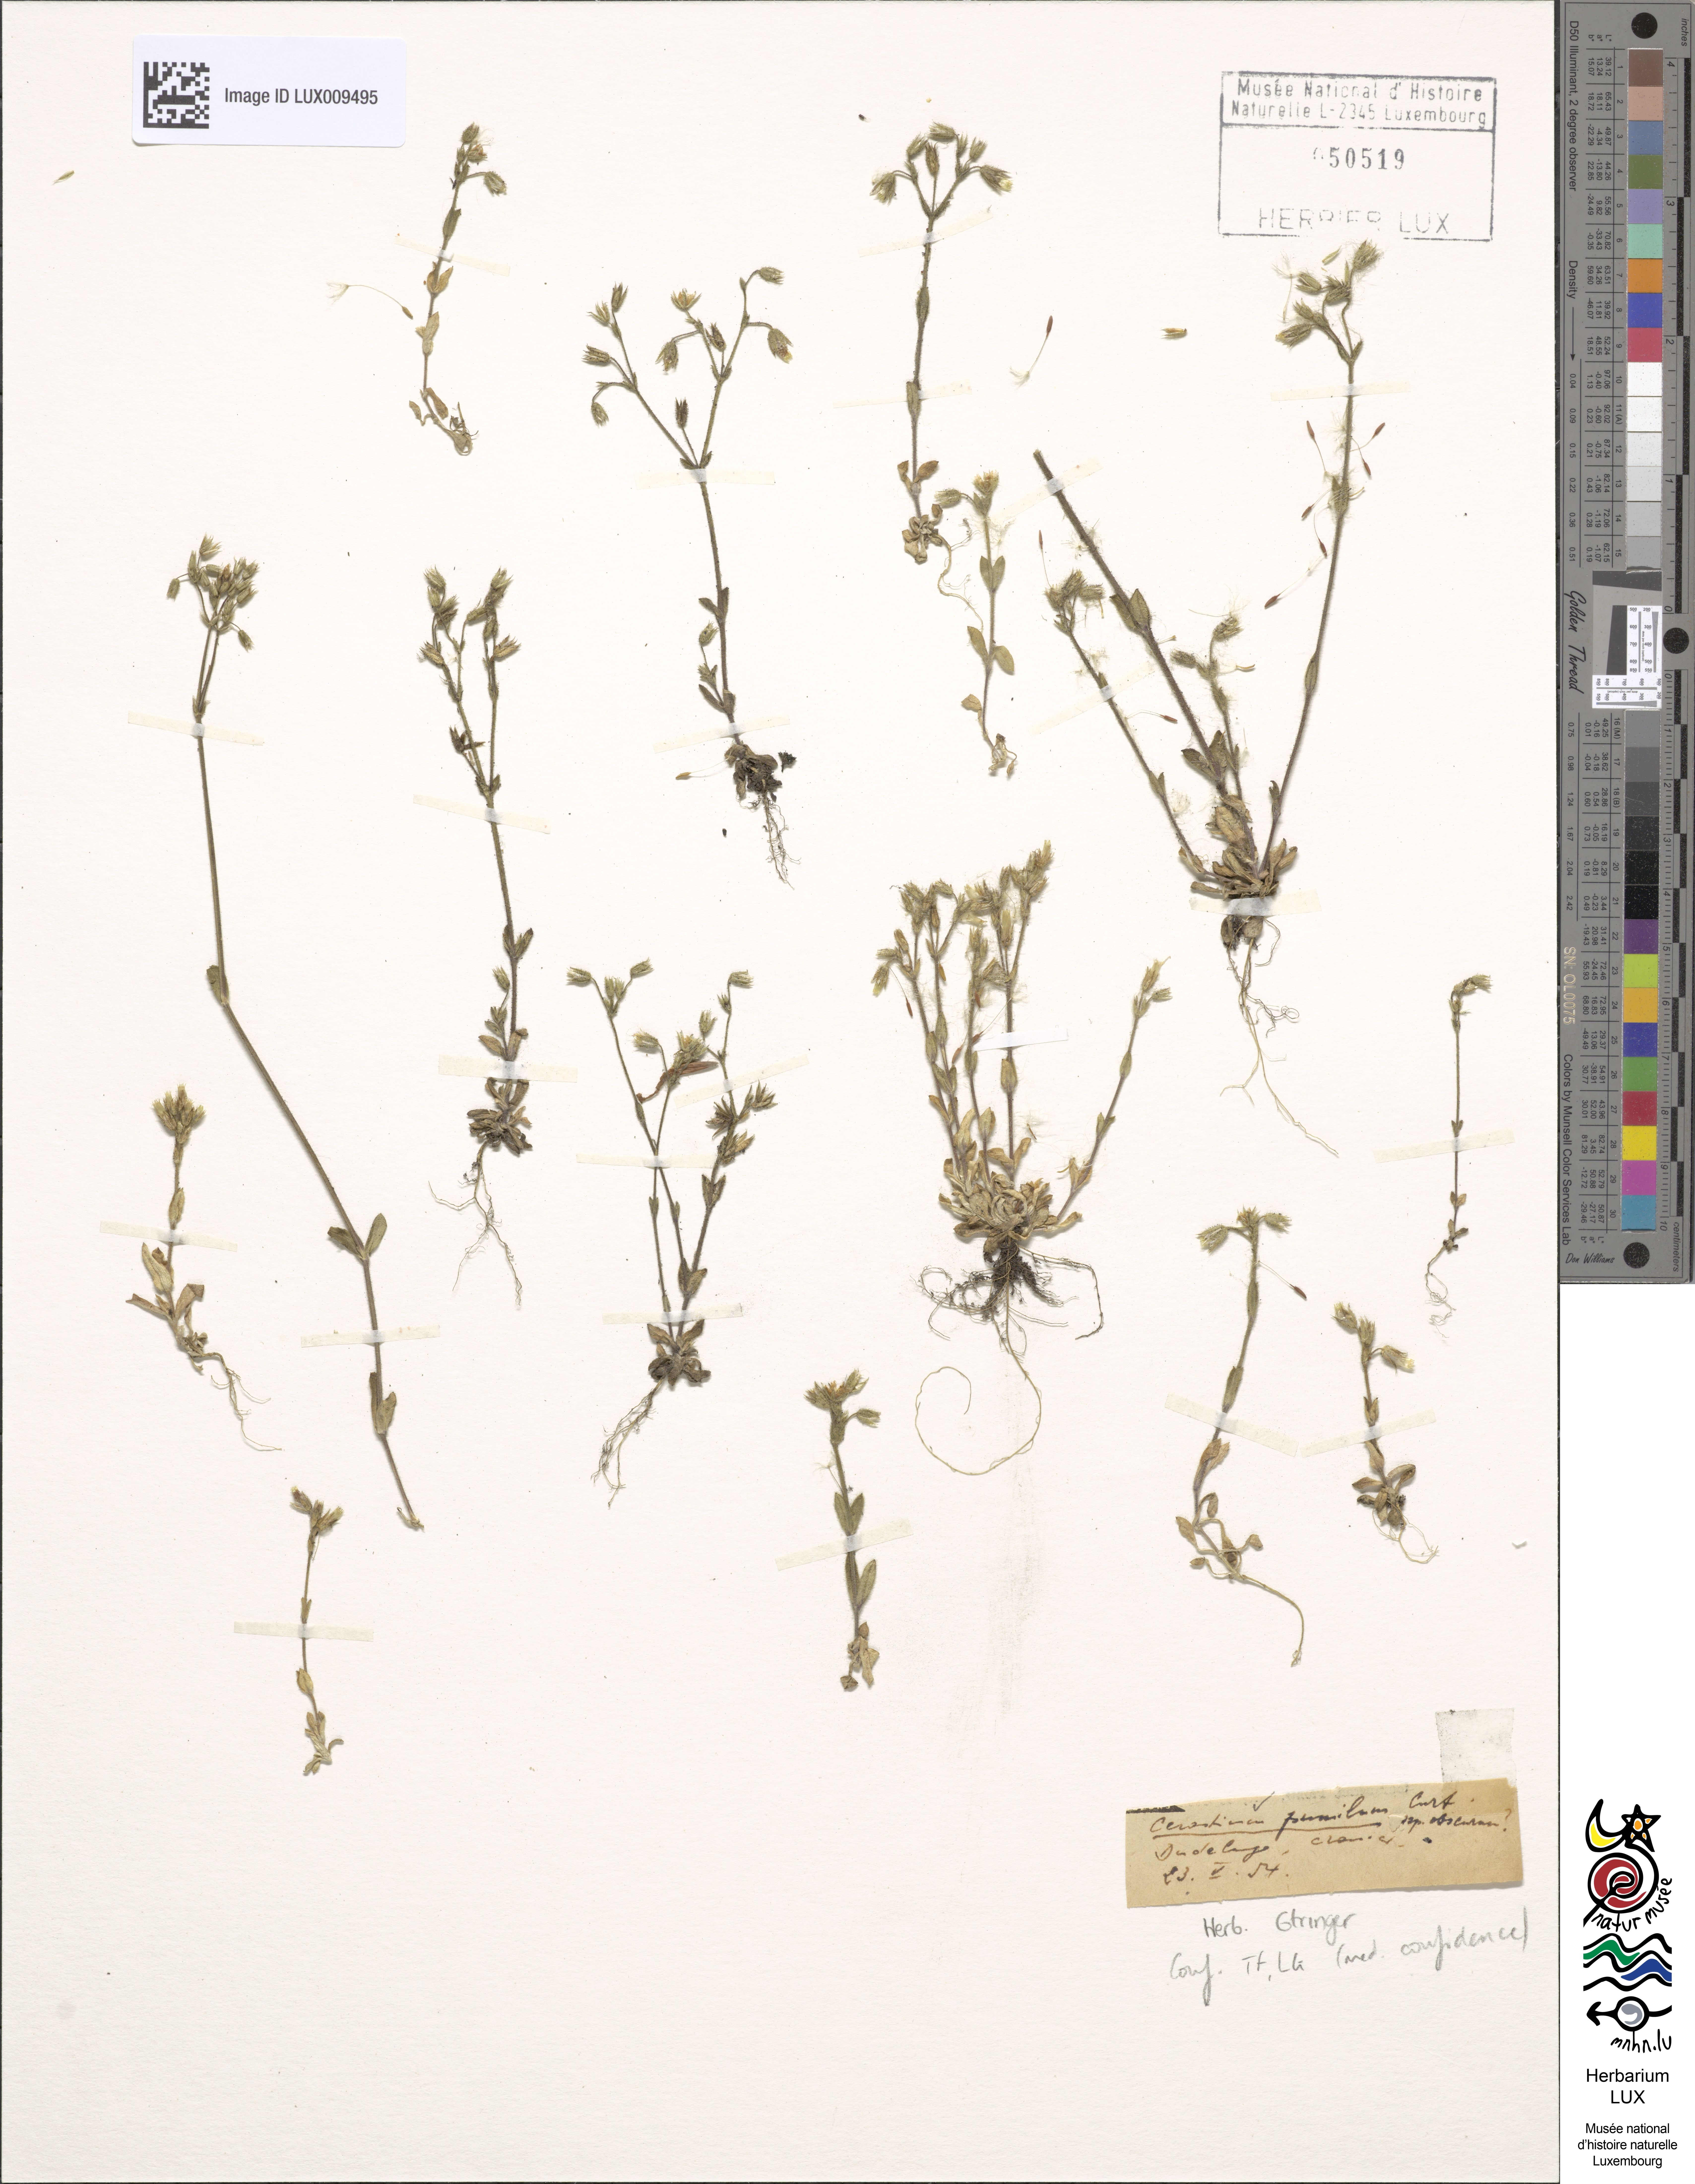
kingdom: Plantae
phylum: Tracheophyta
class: Magnoliopsida
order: Caryophyllales
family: Caryophyllaceae
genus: Cerastium
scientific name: Cerastium pumilum
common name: Dwarf mouse-ear
